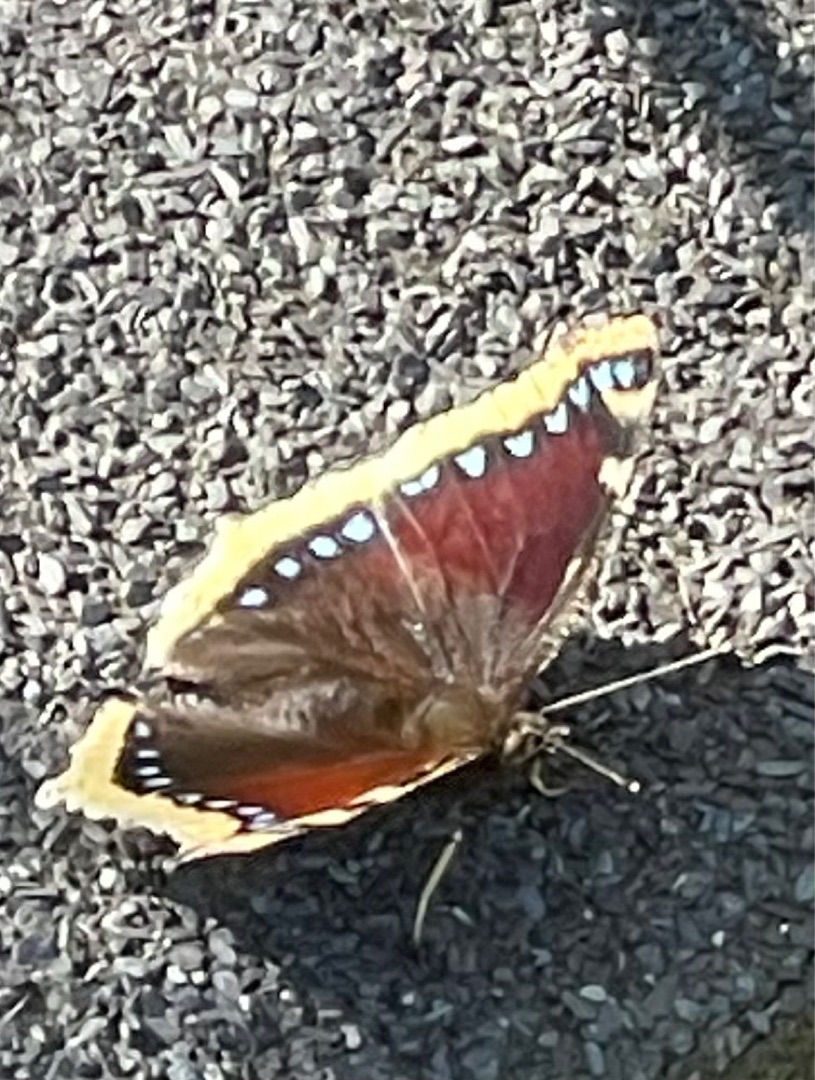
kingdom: Animalia
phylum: Arthropoda
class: Insecta
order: Lepidoptera
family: Nymphalidae
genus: Nymphalis
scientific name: Nymphalis antiopa
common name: Sørgekåbe
